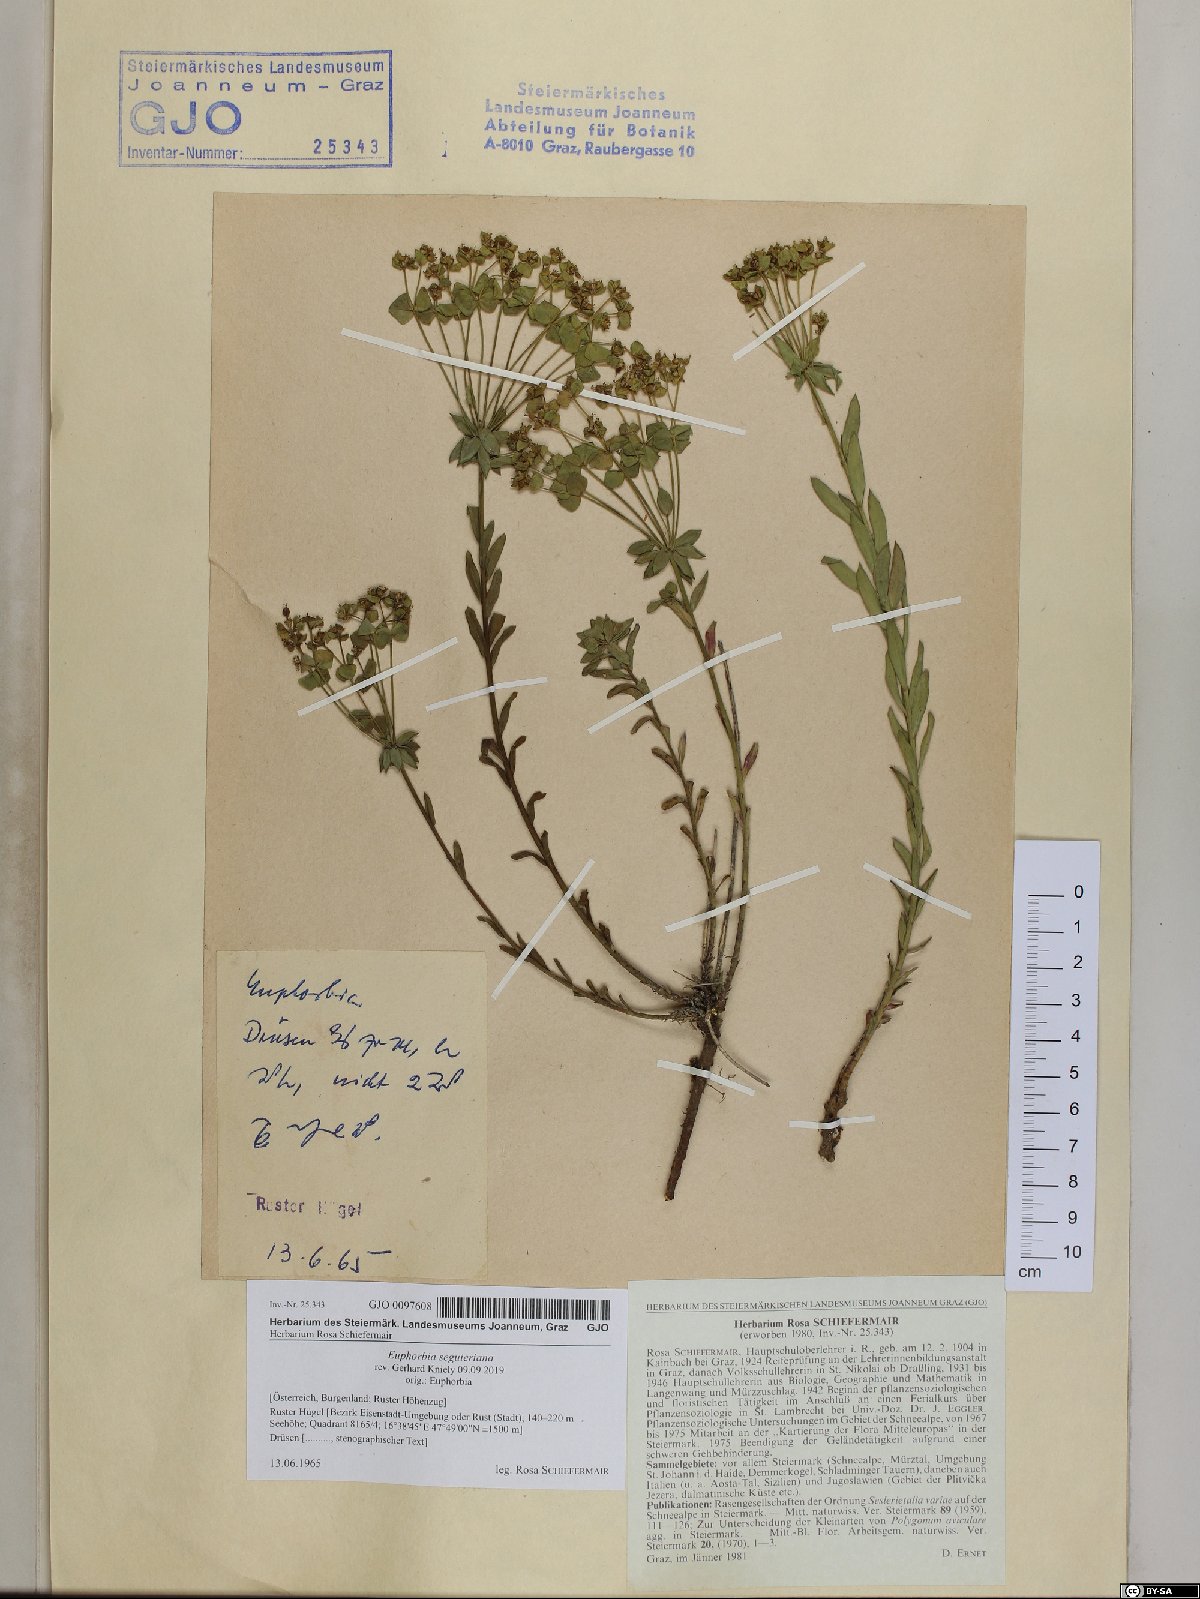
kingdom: Plantae
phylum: Tracheophyta
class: Magnoliopsida
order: Malpighiales
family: Euphorbiaceae
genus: Euphorbia
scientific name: Euphorbia seguieriana
